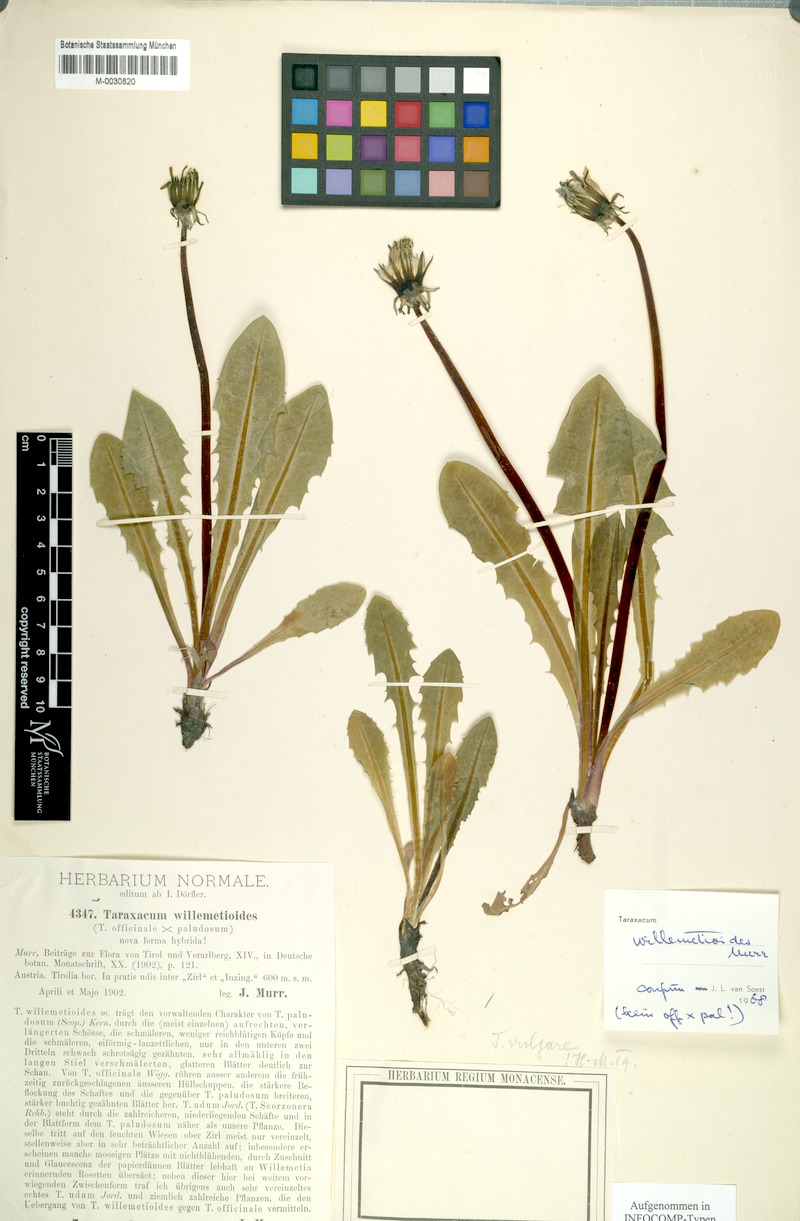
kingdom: Plantae
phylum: Tracheophyta
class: Magnoliopsida
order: Asterales
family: Asteraceae
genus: Taraxacum
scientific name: Taraxacum
